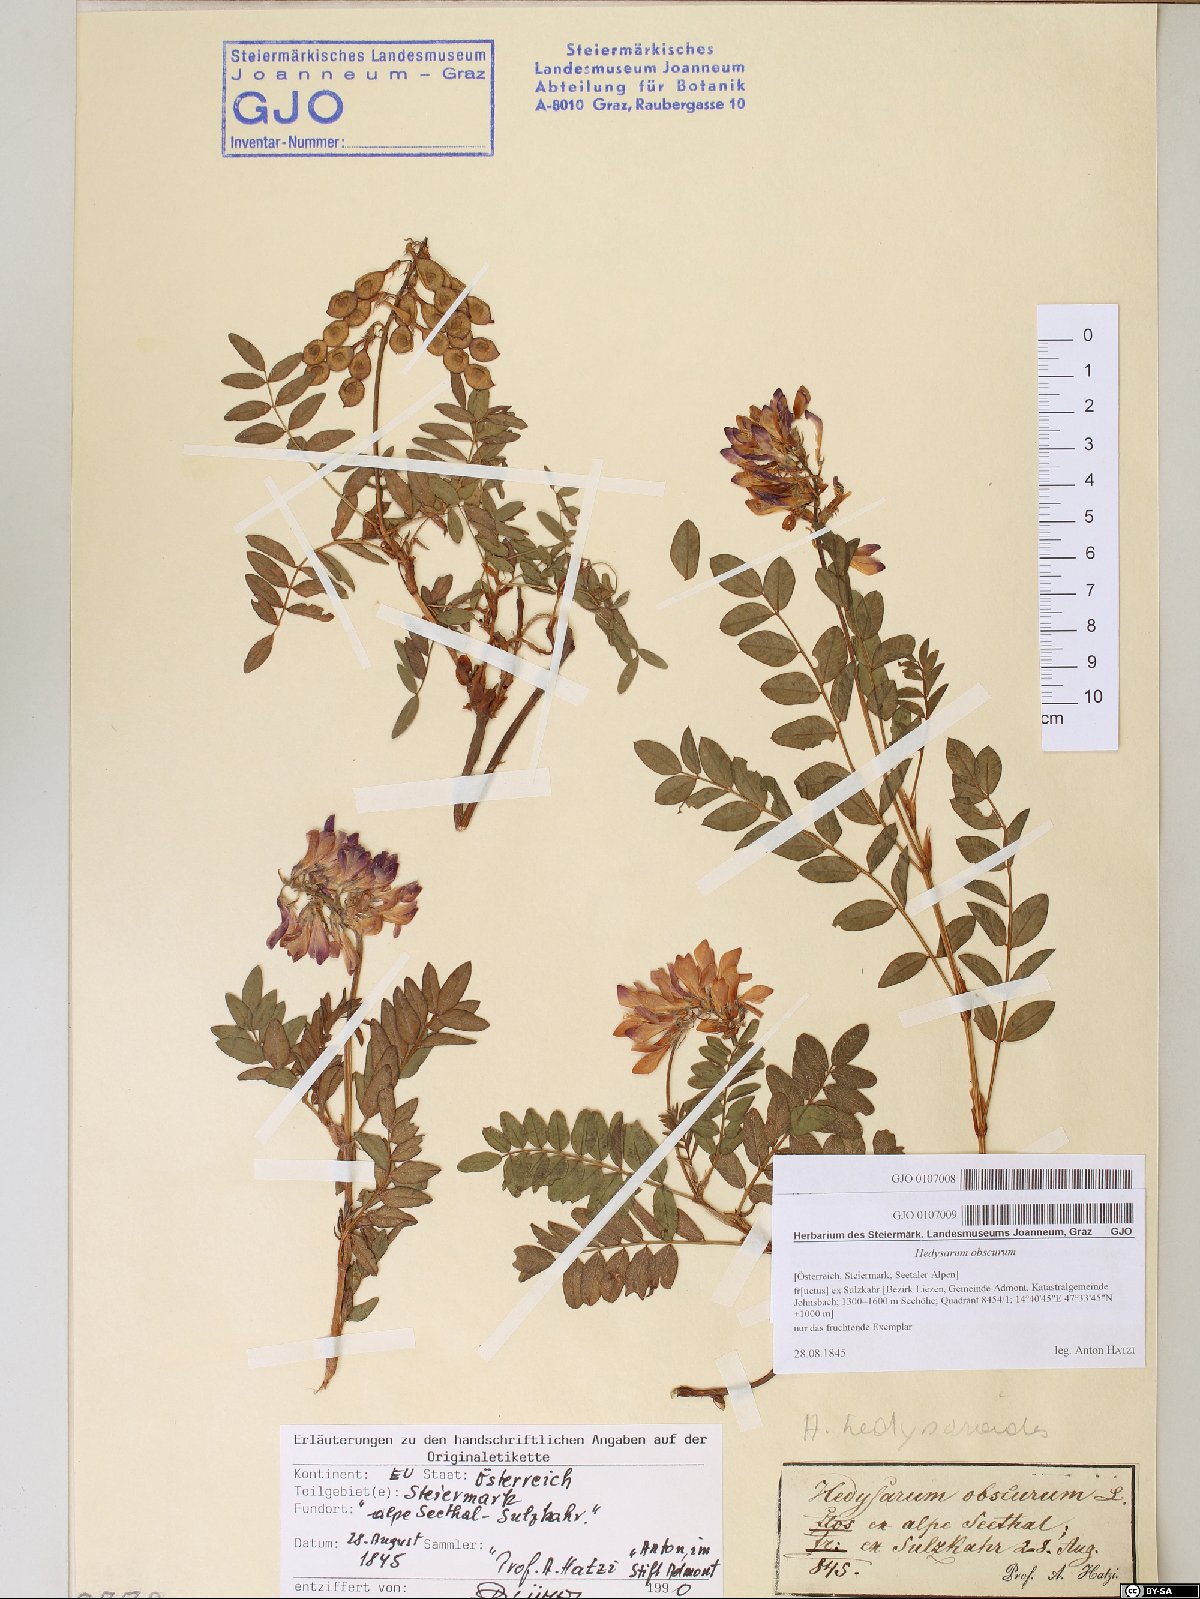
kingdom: Plantae
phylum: Tracheophyta
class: Magnoliopsida
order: Fabales
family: Fabaceae
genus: Hedysarum
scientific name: Hedysarum hedysaroides
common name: Alpine french-honeysuckle
